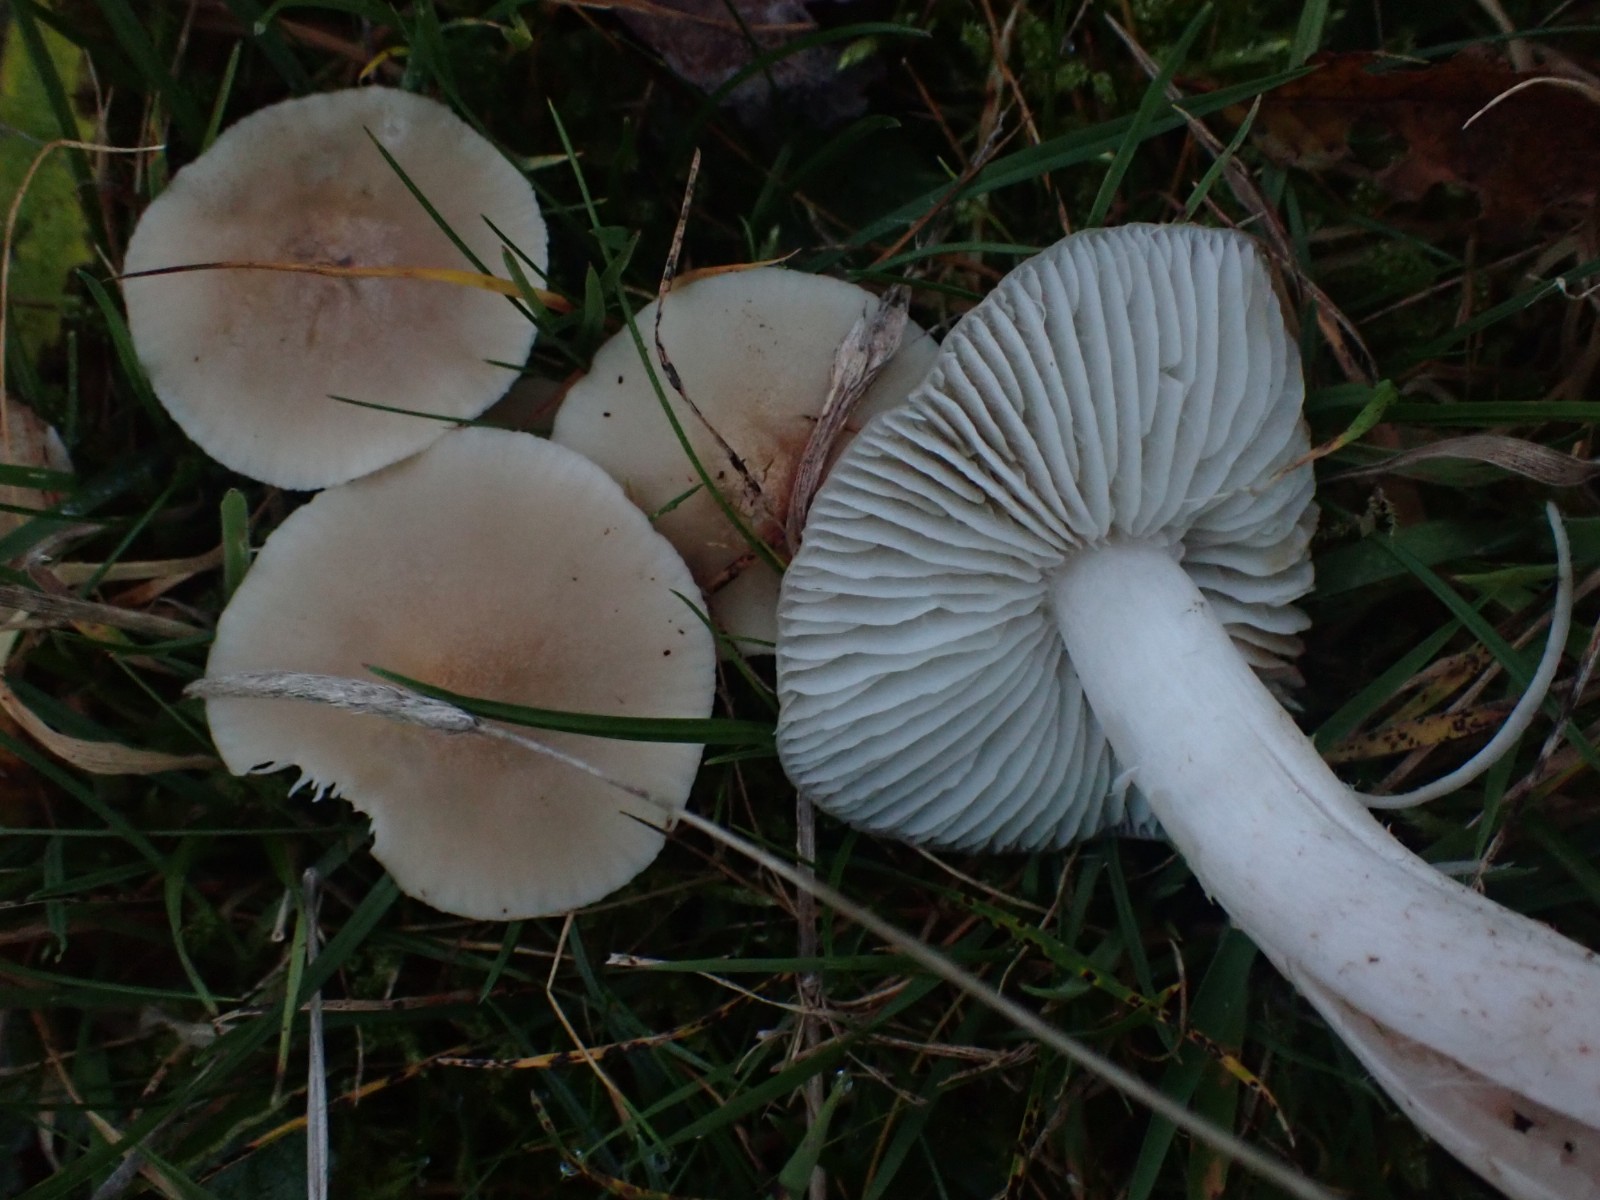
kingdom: Fungi
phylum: Basidiomycota
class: Agaricomycetes
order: Agaricales
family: Hygrophoraceae
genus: Cuphophyllus
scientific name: Cuphophyllus fornicatus
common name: gråbrun vokshat
